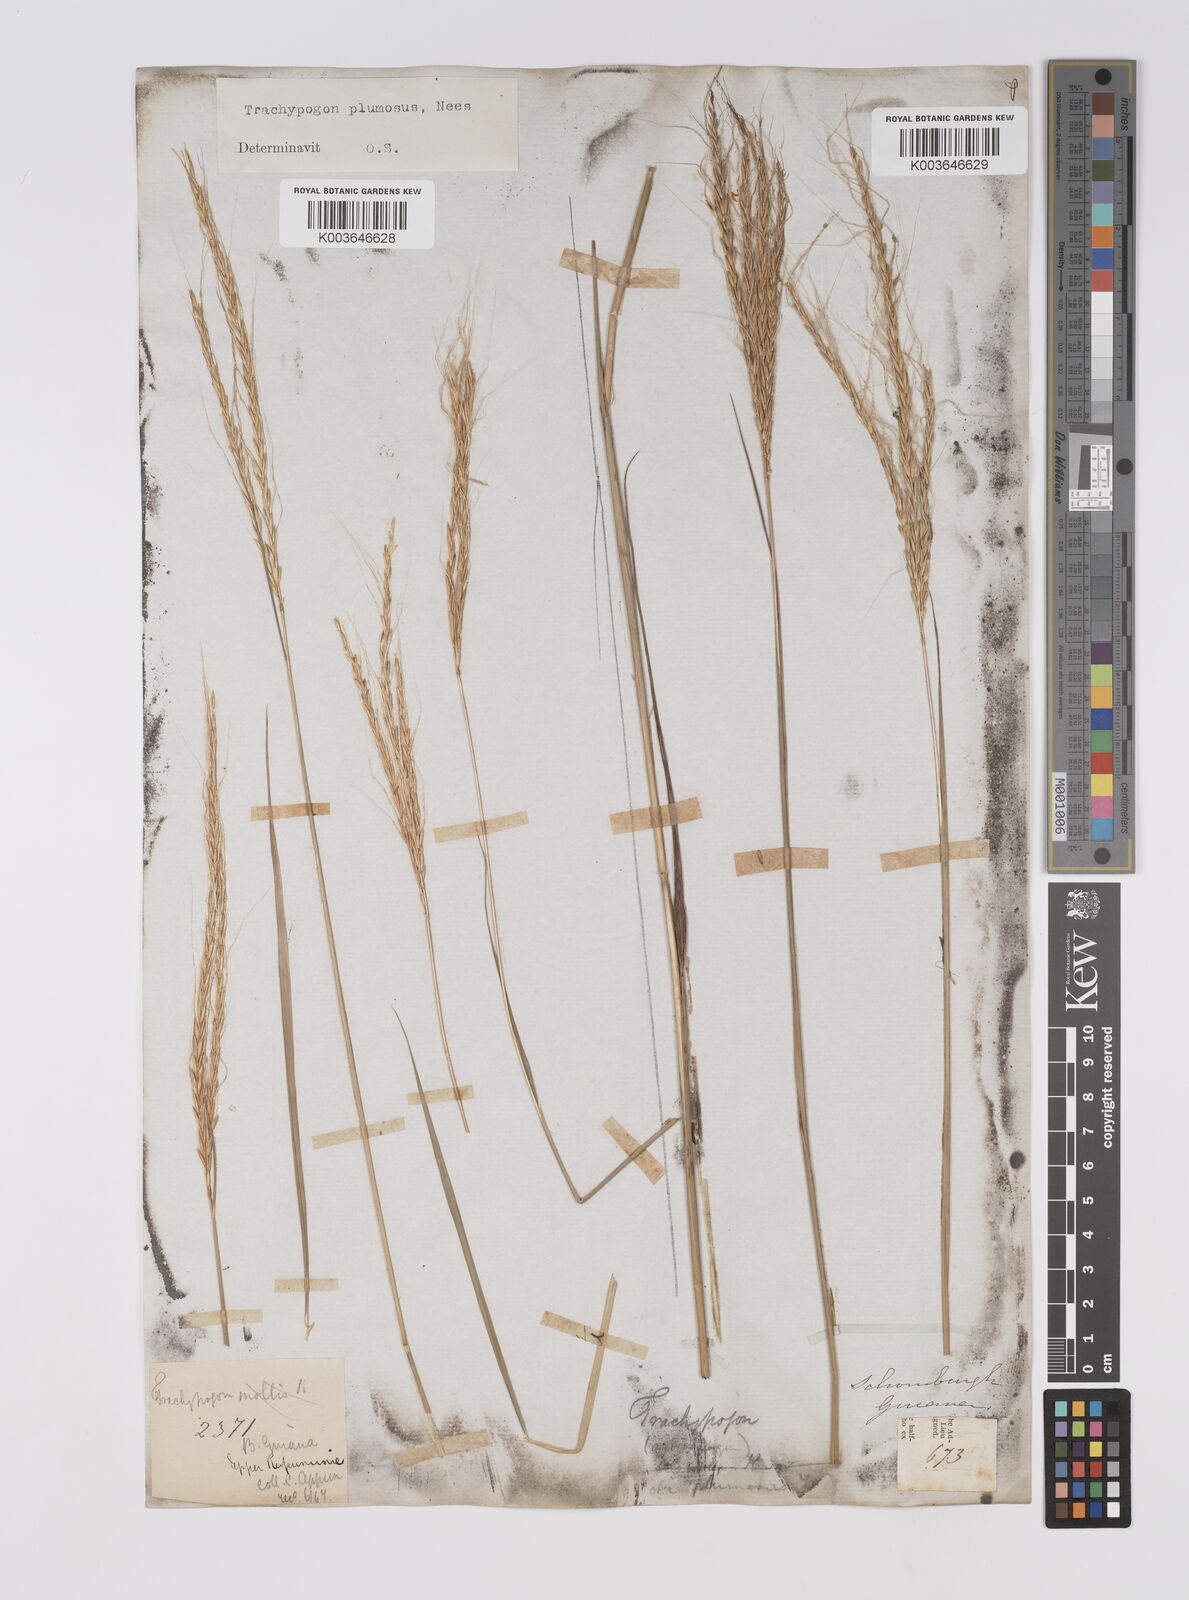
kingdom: Plantae
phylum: Tracheophyta
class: Liliopsida
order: Poales
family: Poaceae
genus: Trachypogon
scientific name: Trachypogon spicatus
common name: Crinkle-awn
